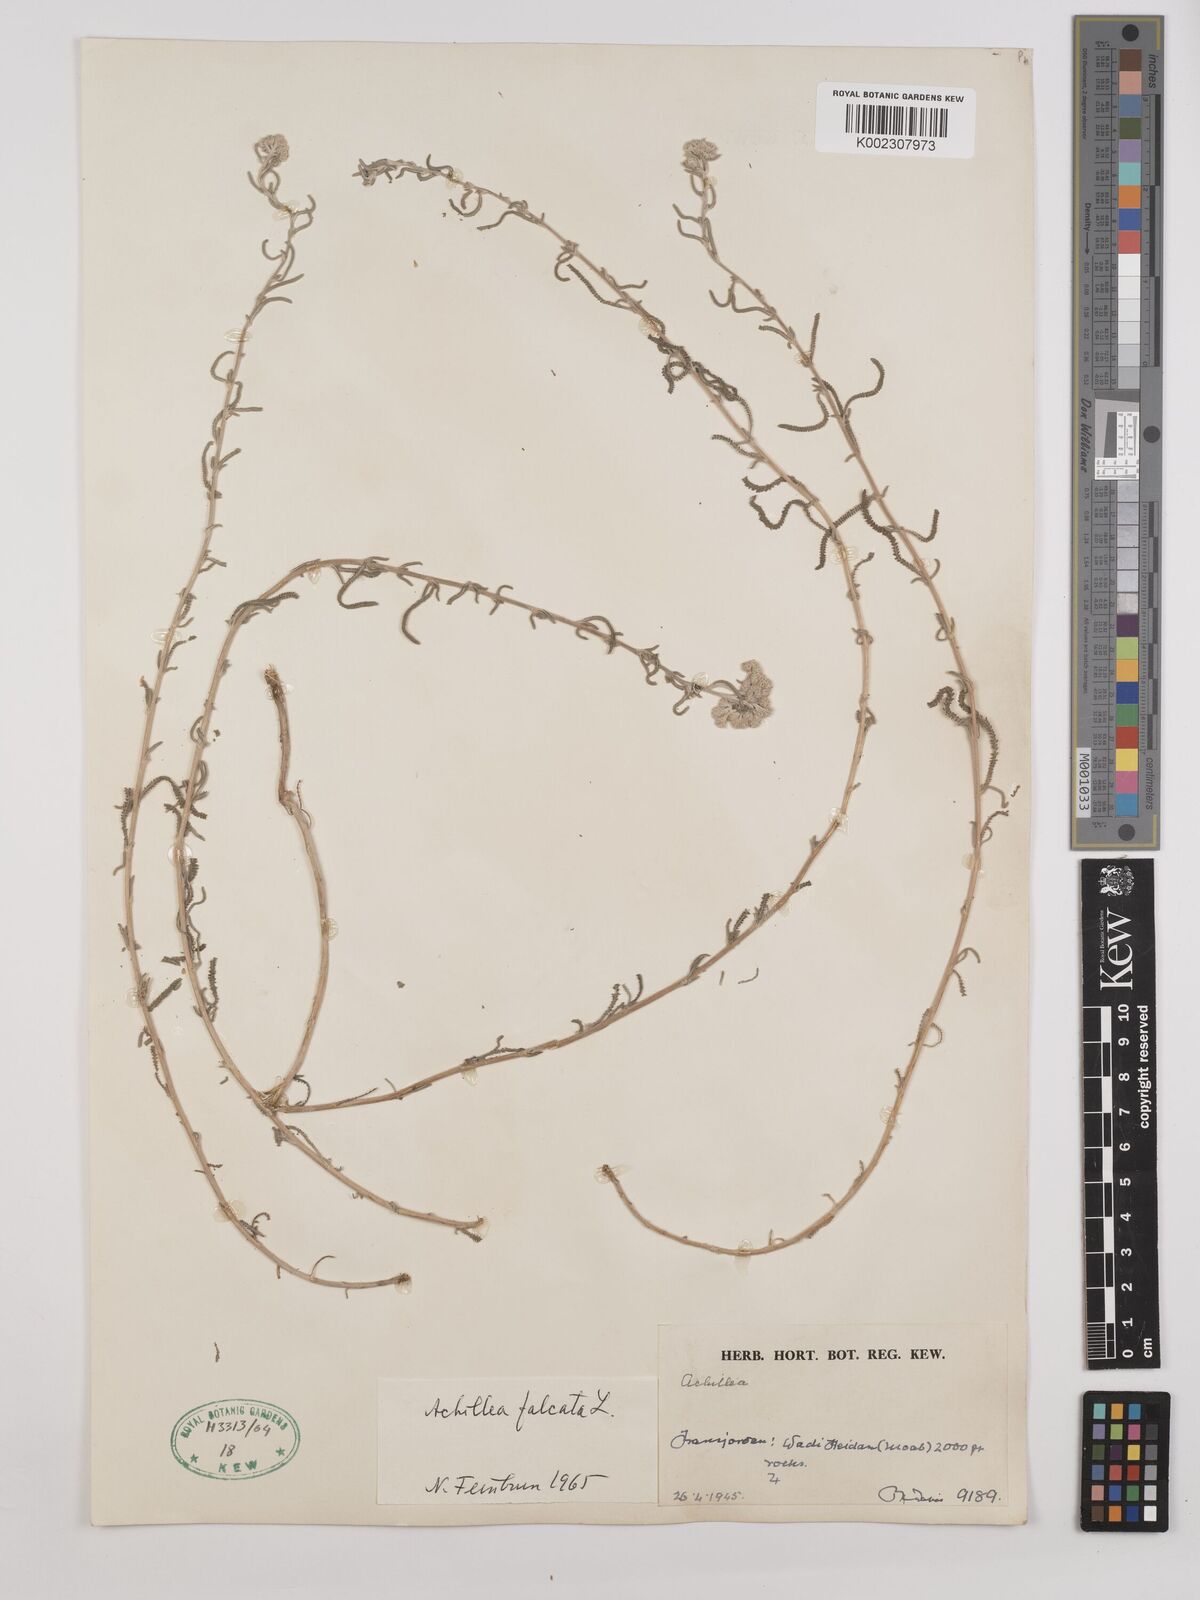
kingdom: Plantae
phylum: Tracheophyta
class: Magnoliopsida
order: Asterales
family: Asteraceae
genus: Achillea
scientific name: Achillea falcata
